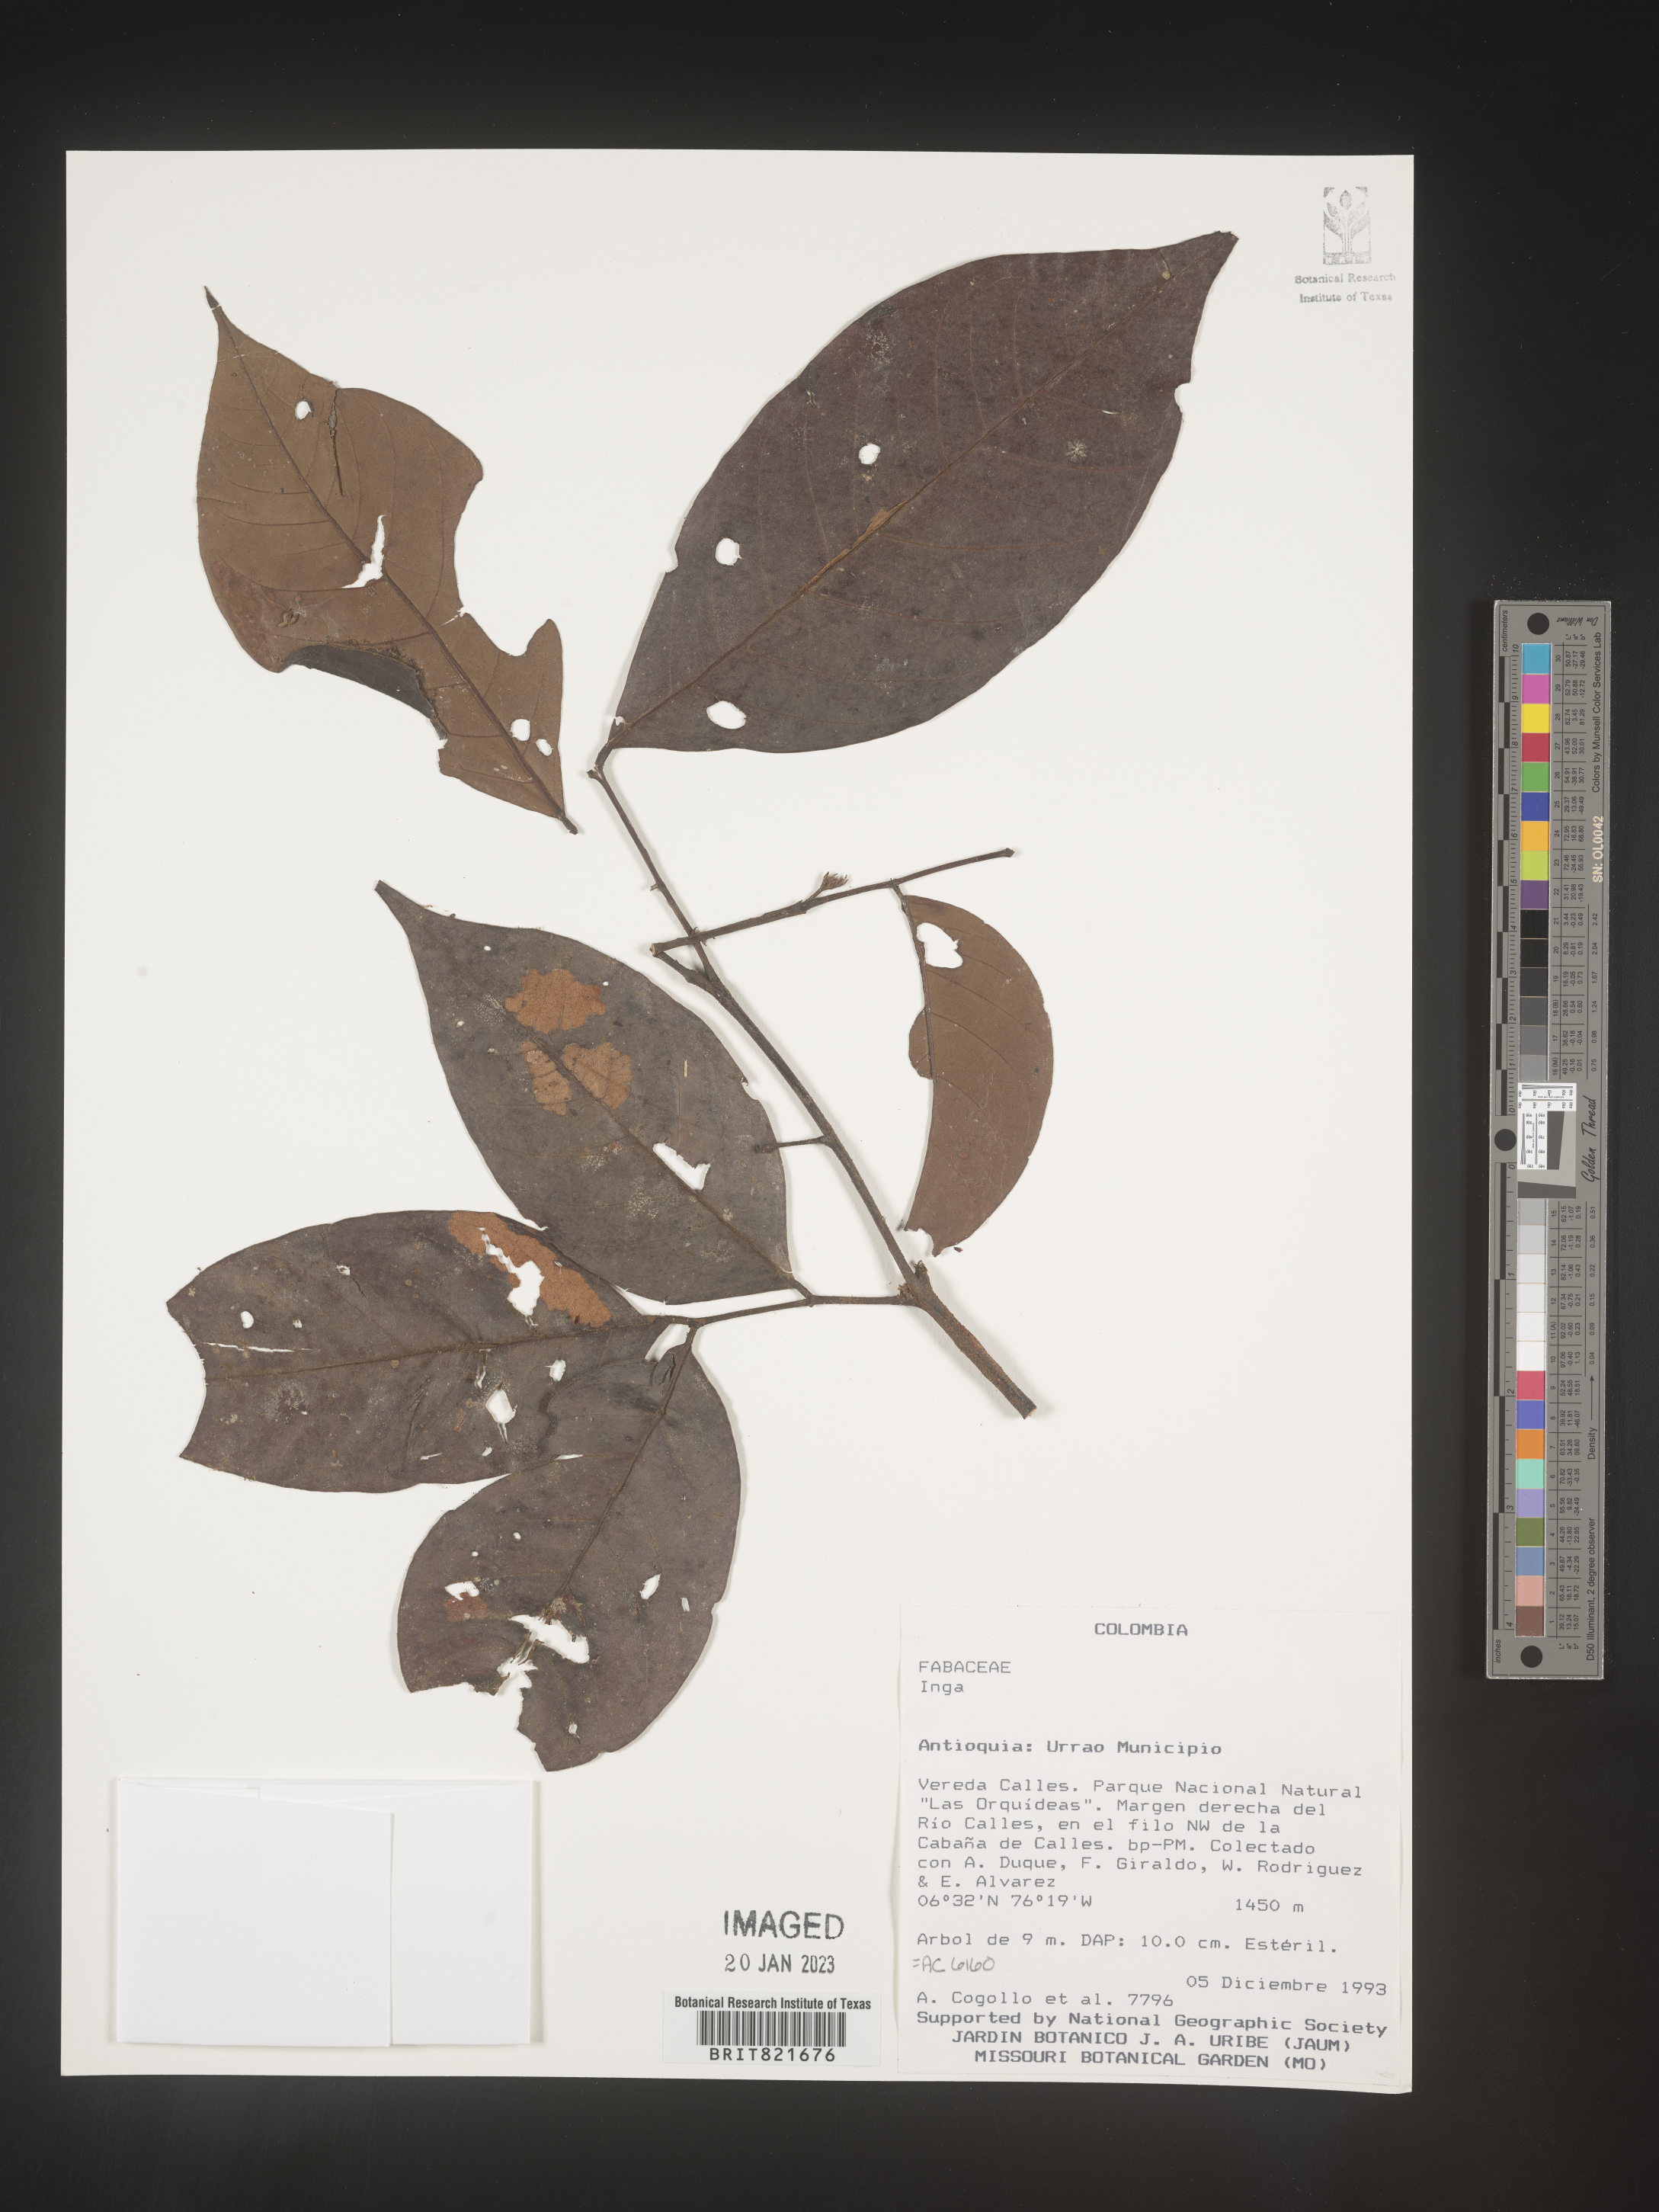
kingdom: Plantae
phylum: Tracheophyta
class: Magnoliopsida
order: Fabales
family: Fabaceae
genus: Inga
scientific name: Inga
